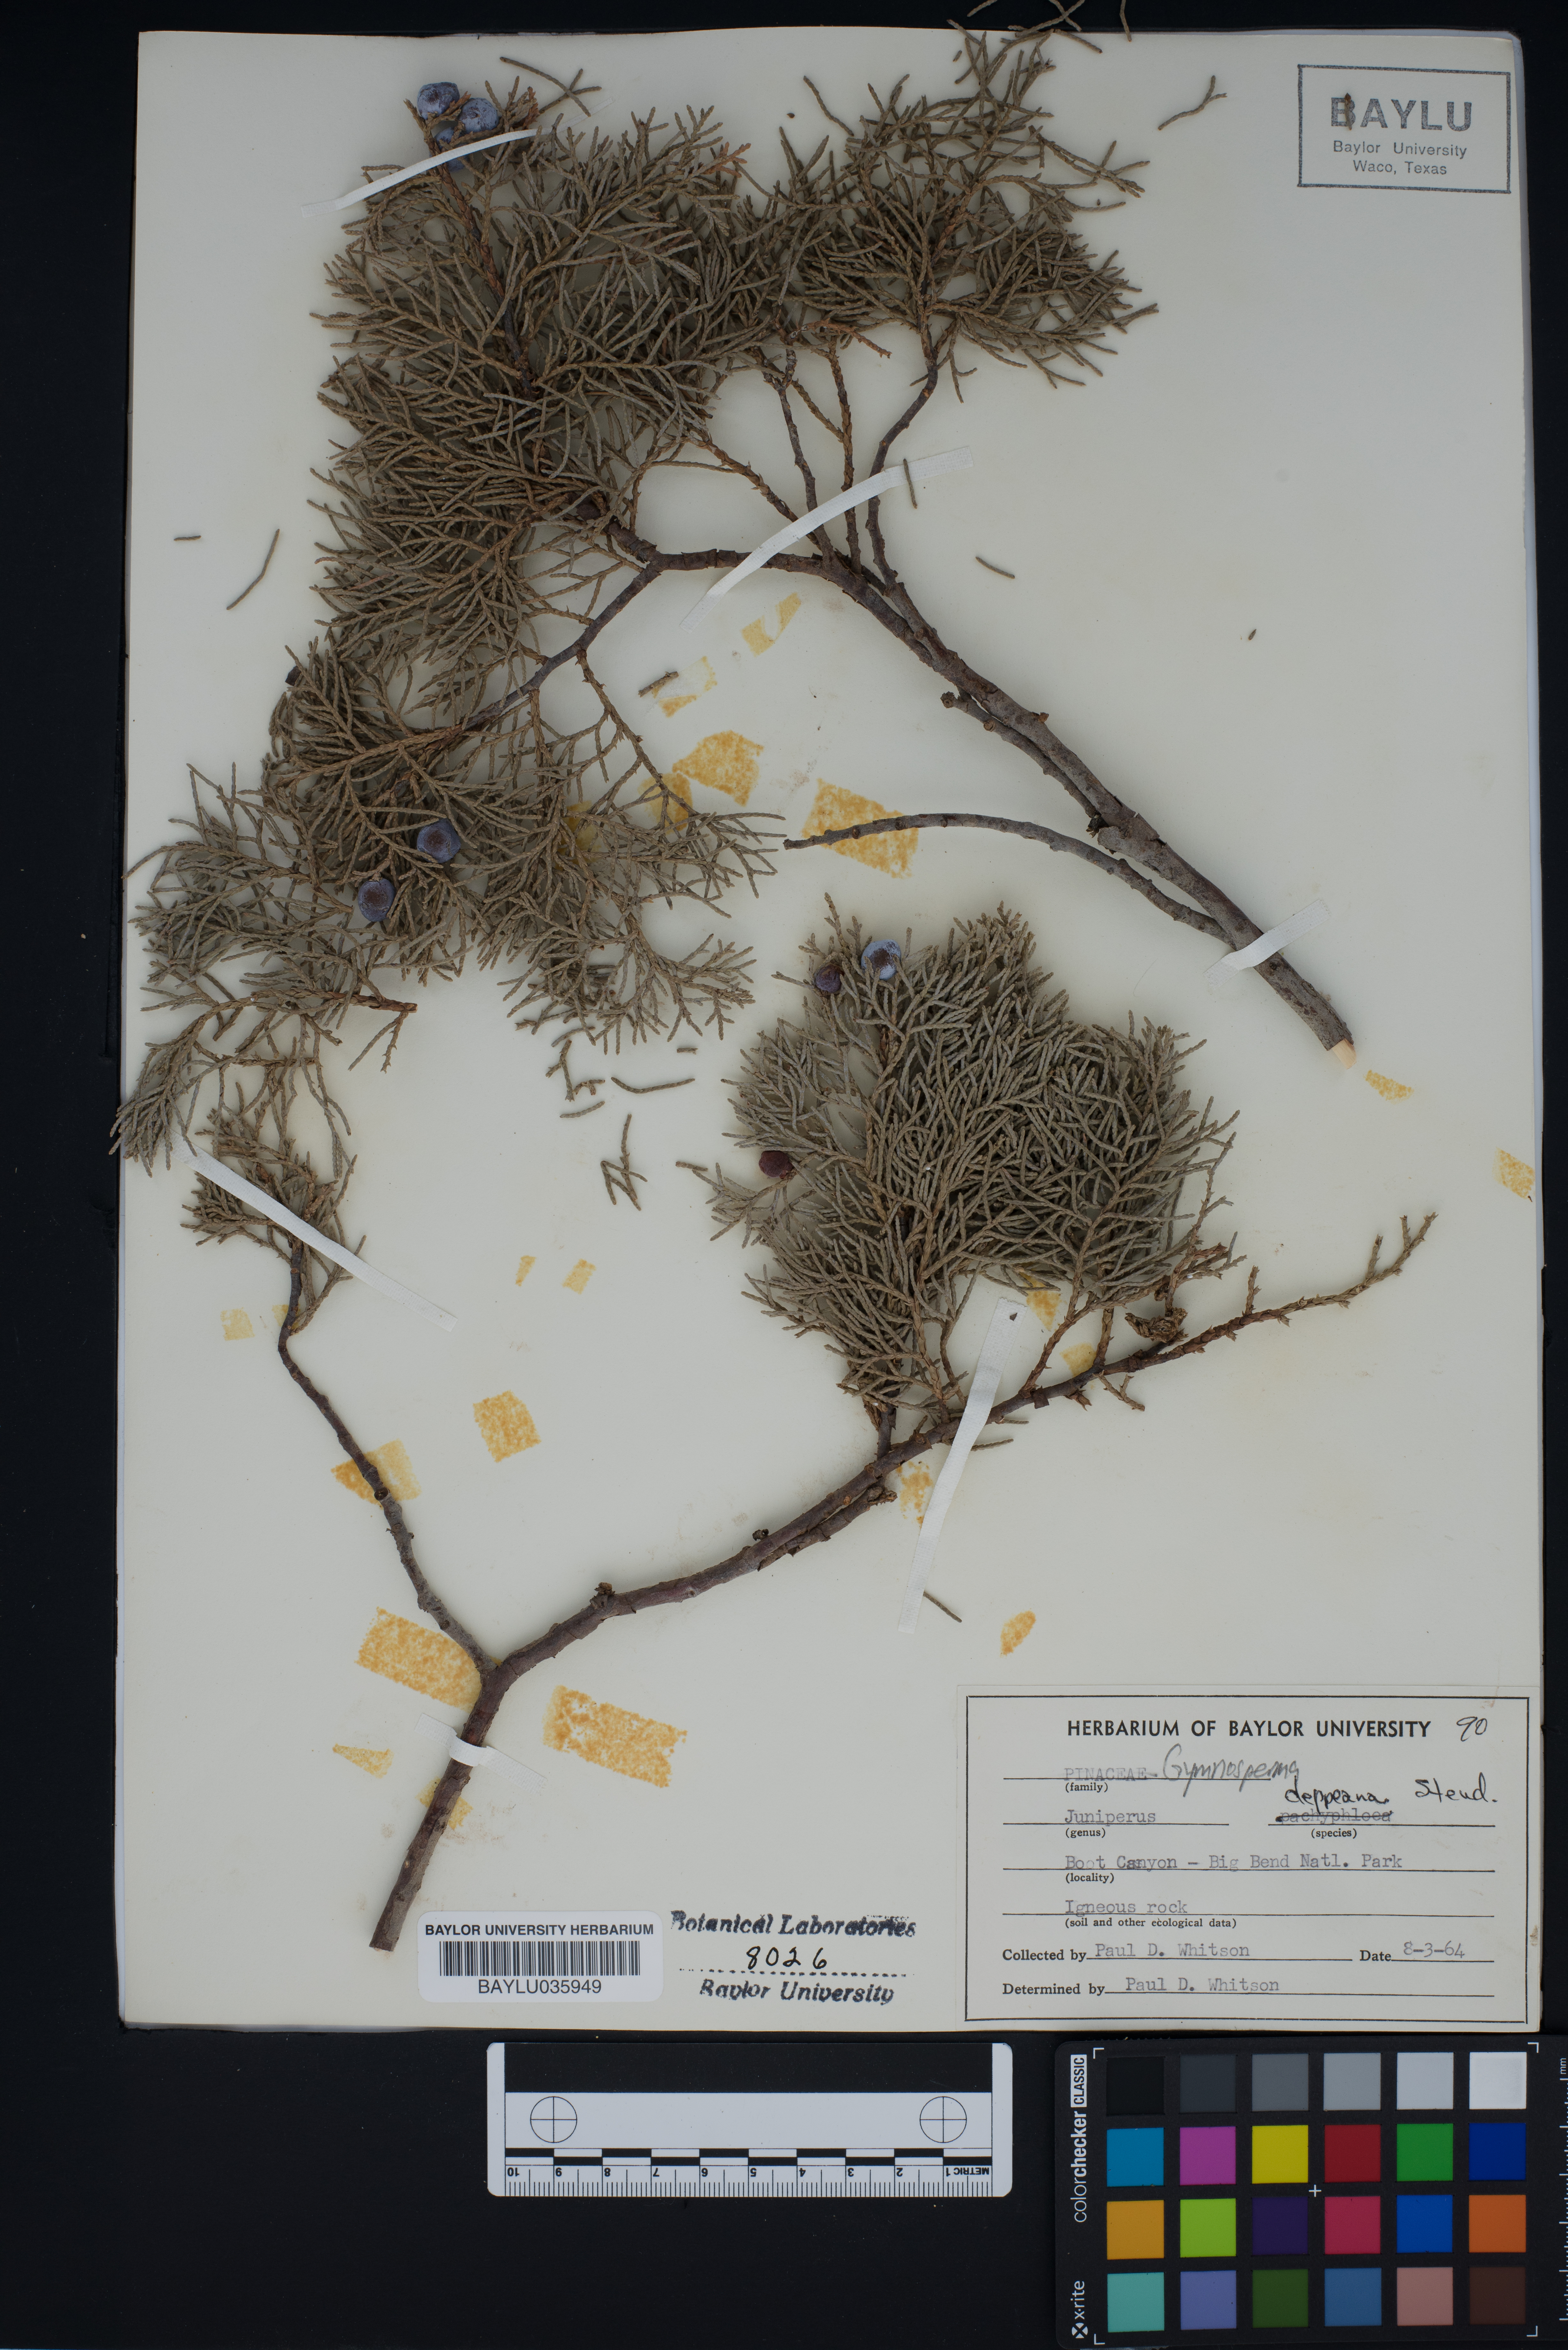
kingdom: Plantae
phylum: Tracheophyta
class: Pinopsida
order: Pinales
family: Cupressaceae
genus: Juniperus
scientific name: Juniperus deppeana
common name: Alligator juniper
